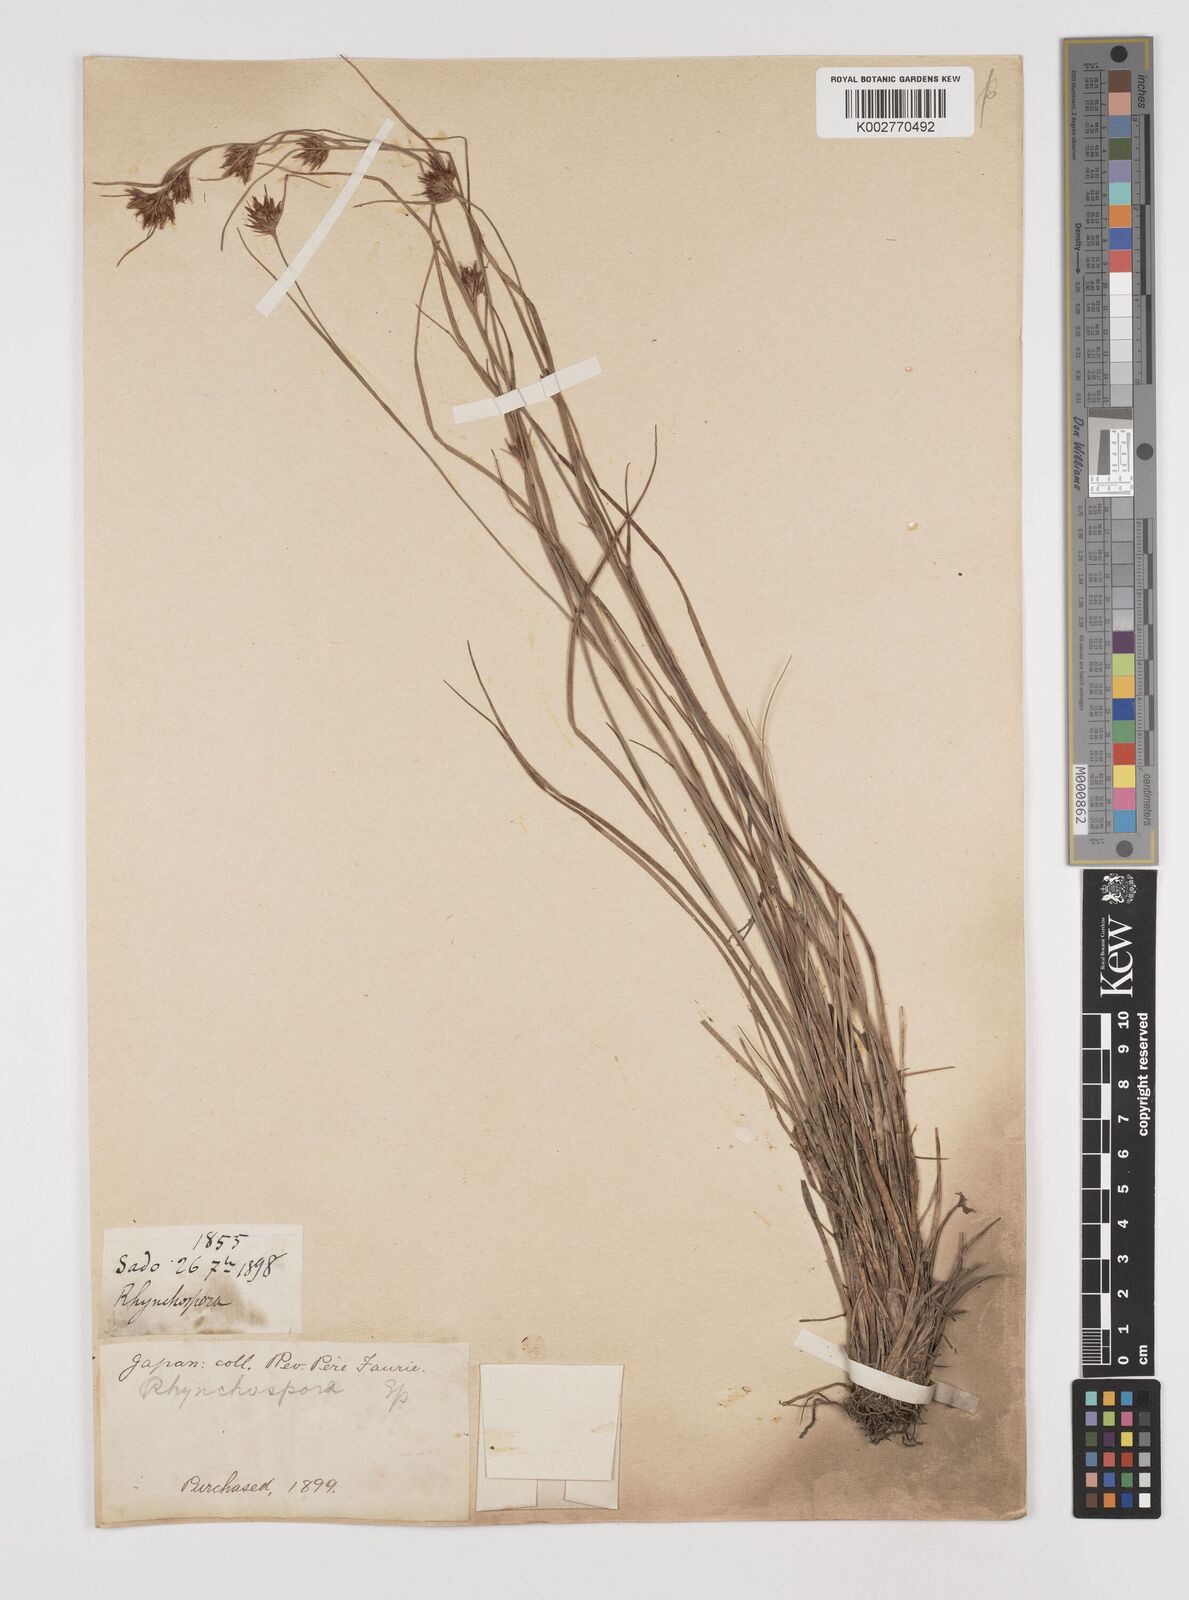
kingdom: Plantae
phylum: Tracheophyta
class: Liliopsida
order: Poales
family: Cyperaceae
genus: Rhynchospora
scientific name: Rhynchospora
